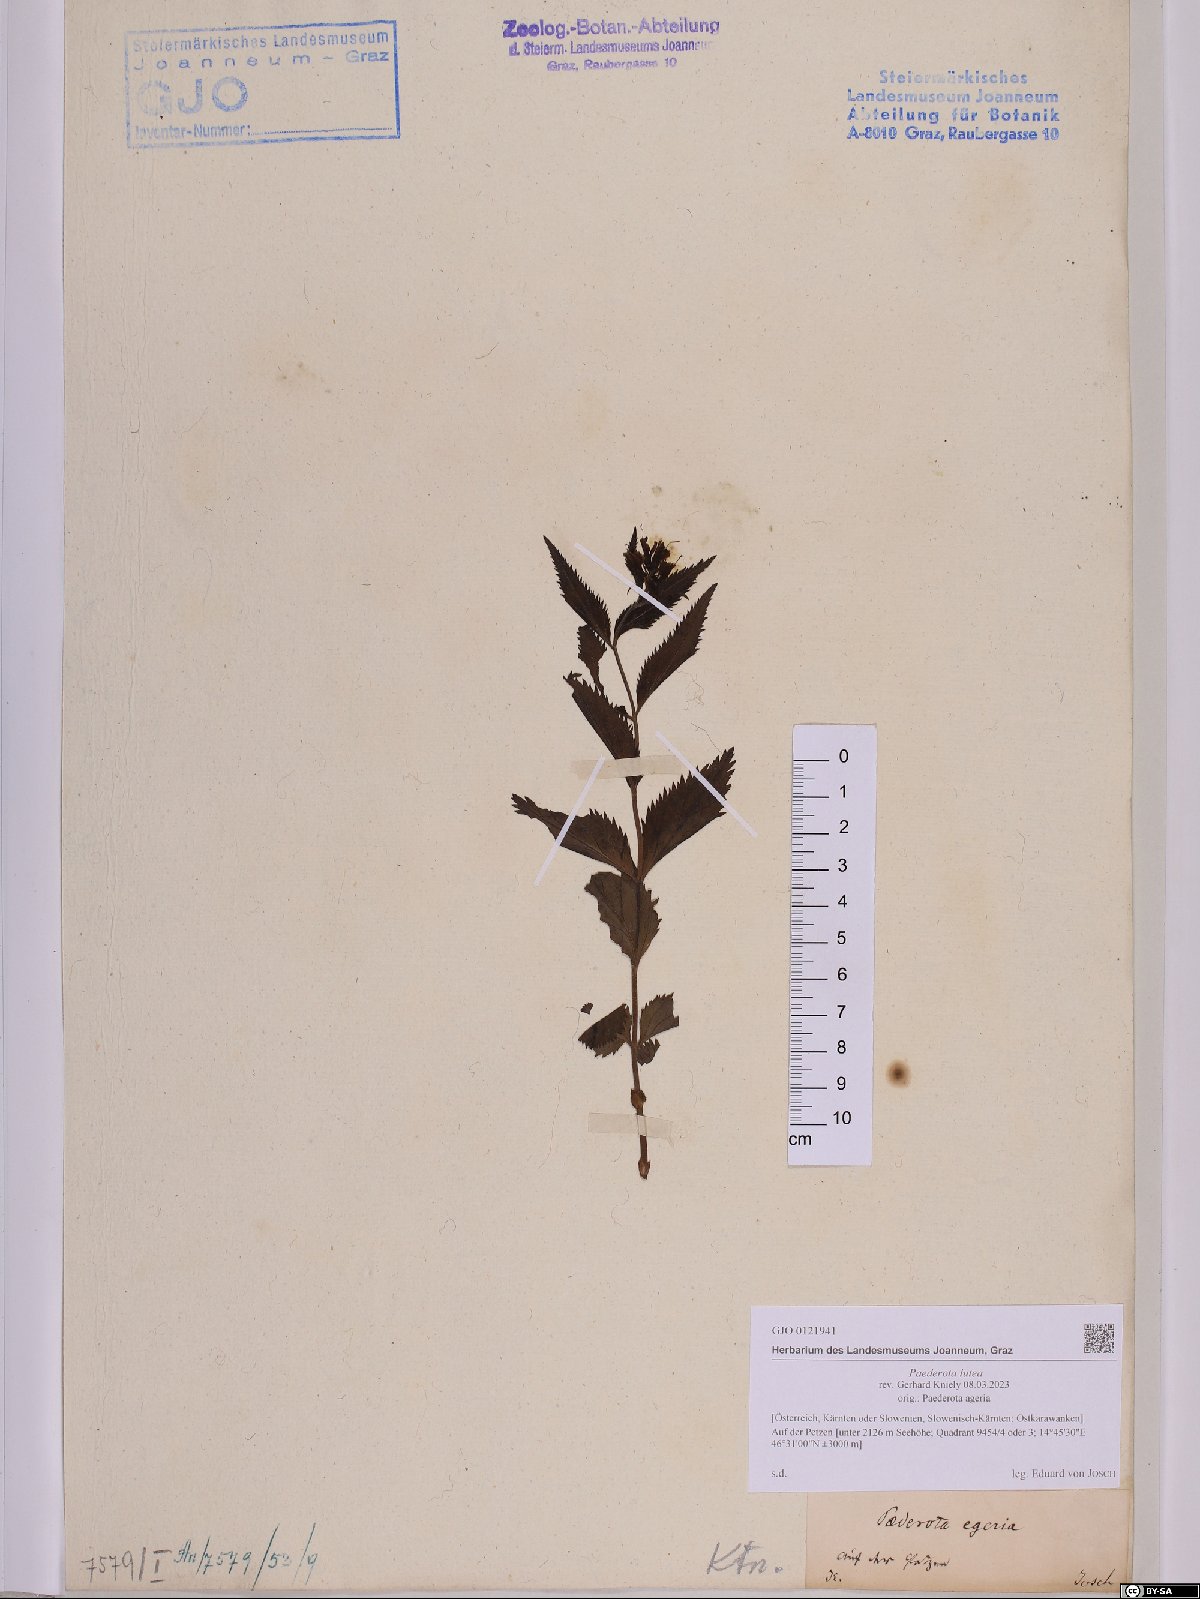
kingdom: Plantae
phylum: Tracheophyta
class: Magnoliopsida
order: Lamiales
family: Plantaginaceae
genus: Paederota
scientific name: Paederota lutea
